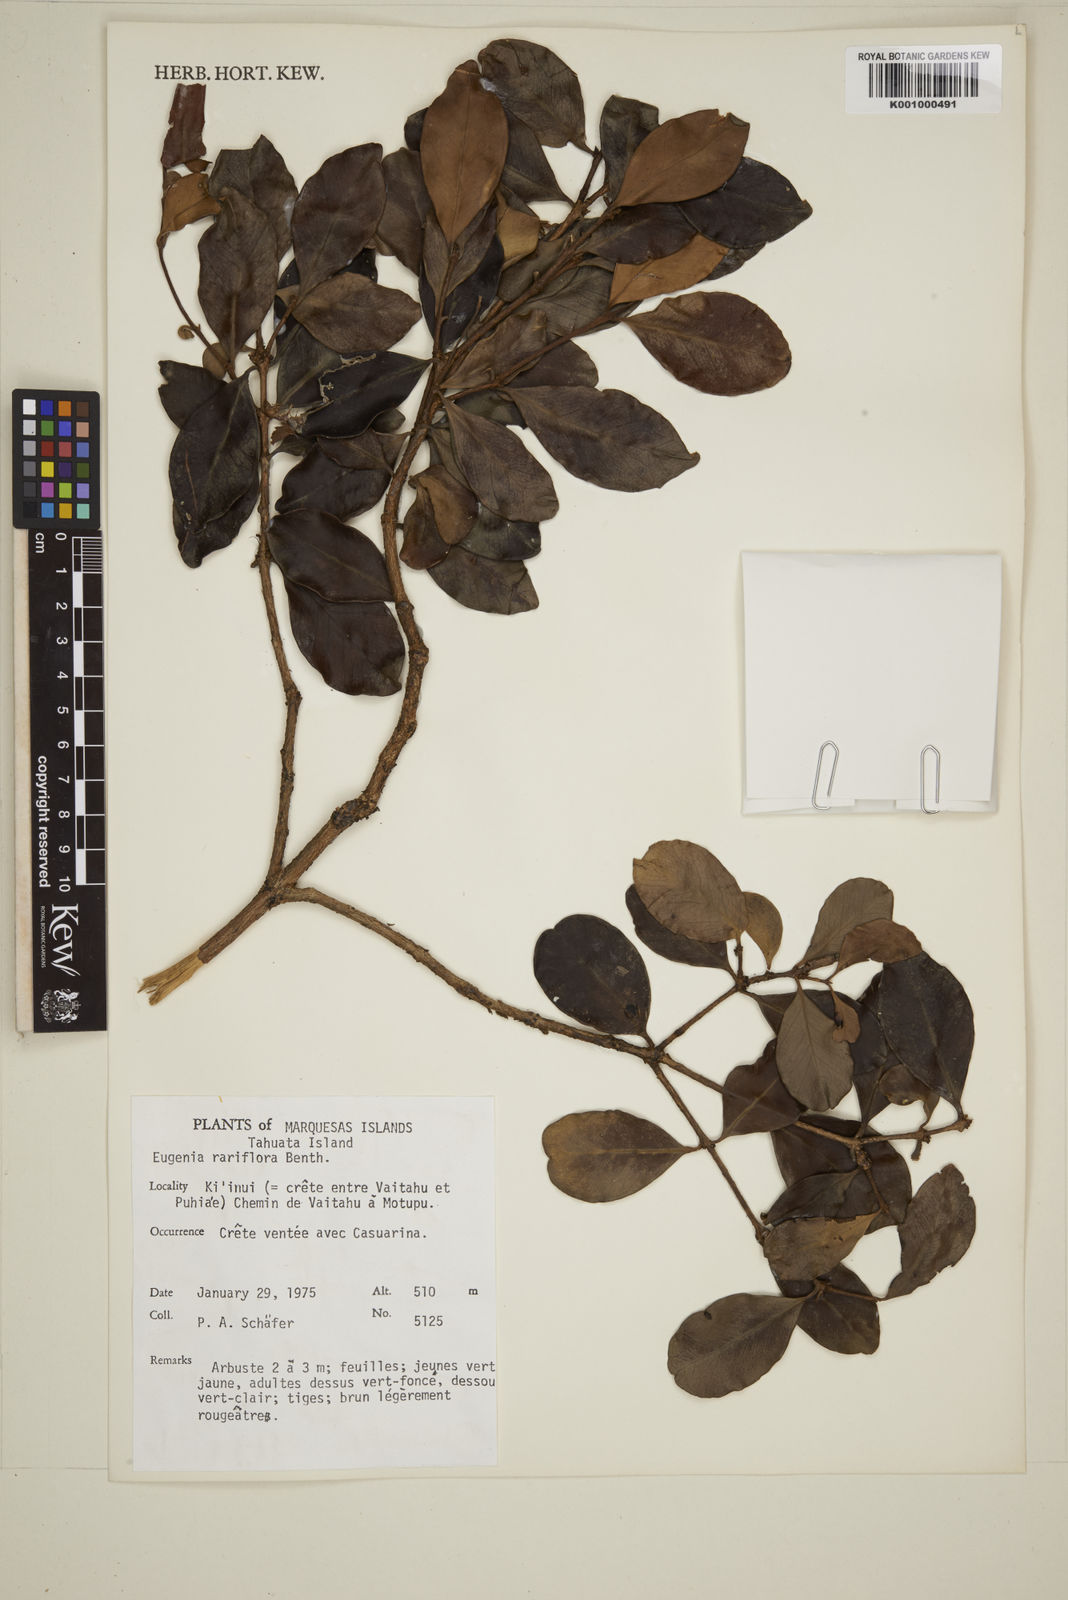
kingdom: Plantae
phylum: Tracheophyta
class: Magnoliopsida
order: Myrtales
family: Myrtaceae
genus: Eugenia
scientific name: Eugenia reinwardtiana
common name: Cedar bay-cherry
